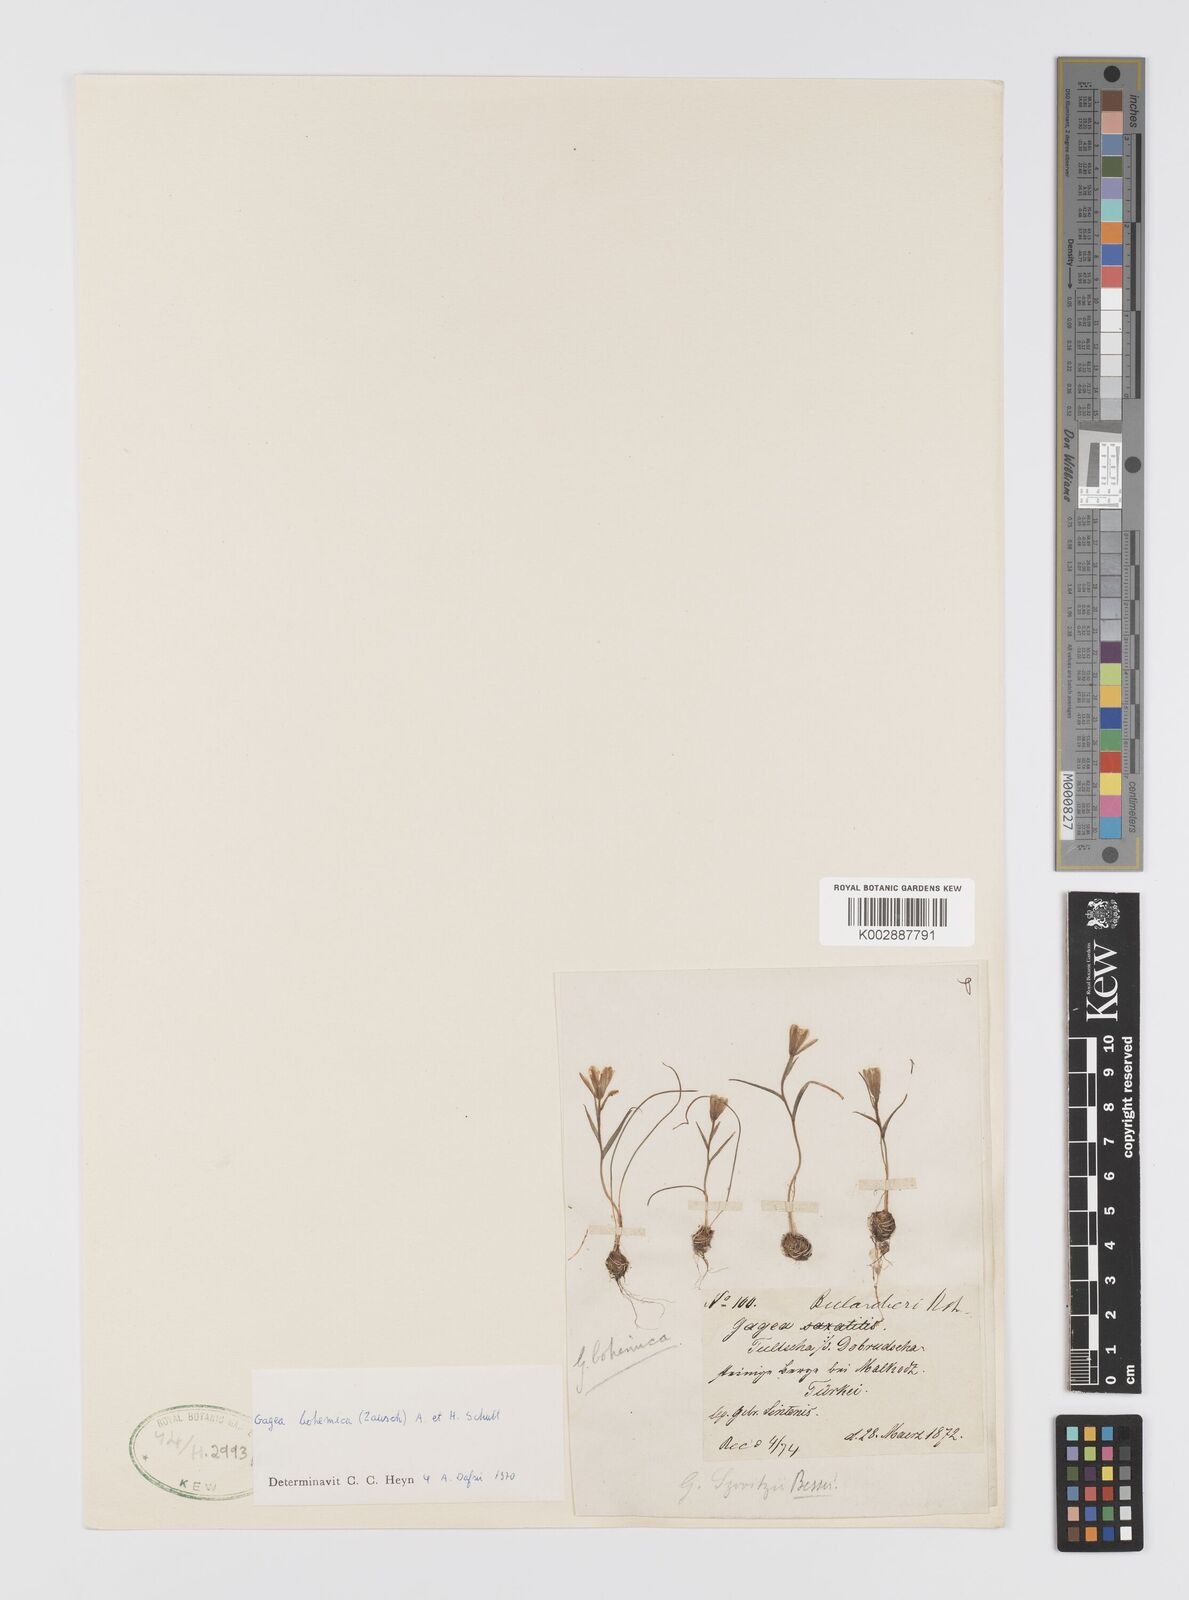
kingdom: Plantae
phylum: Tracheophyta
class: Liliopsida
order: Liliales
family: Liliaceae
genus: Gagea
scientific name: Gagea bohemica
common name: Early star-of-bethlehem
